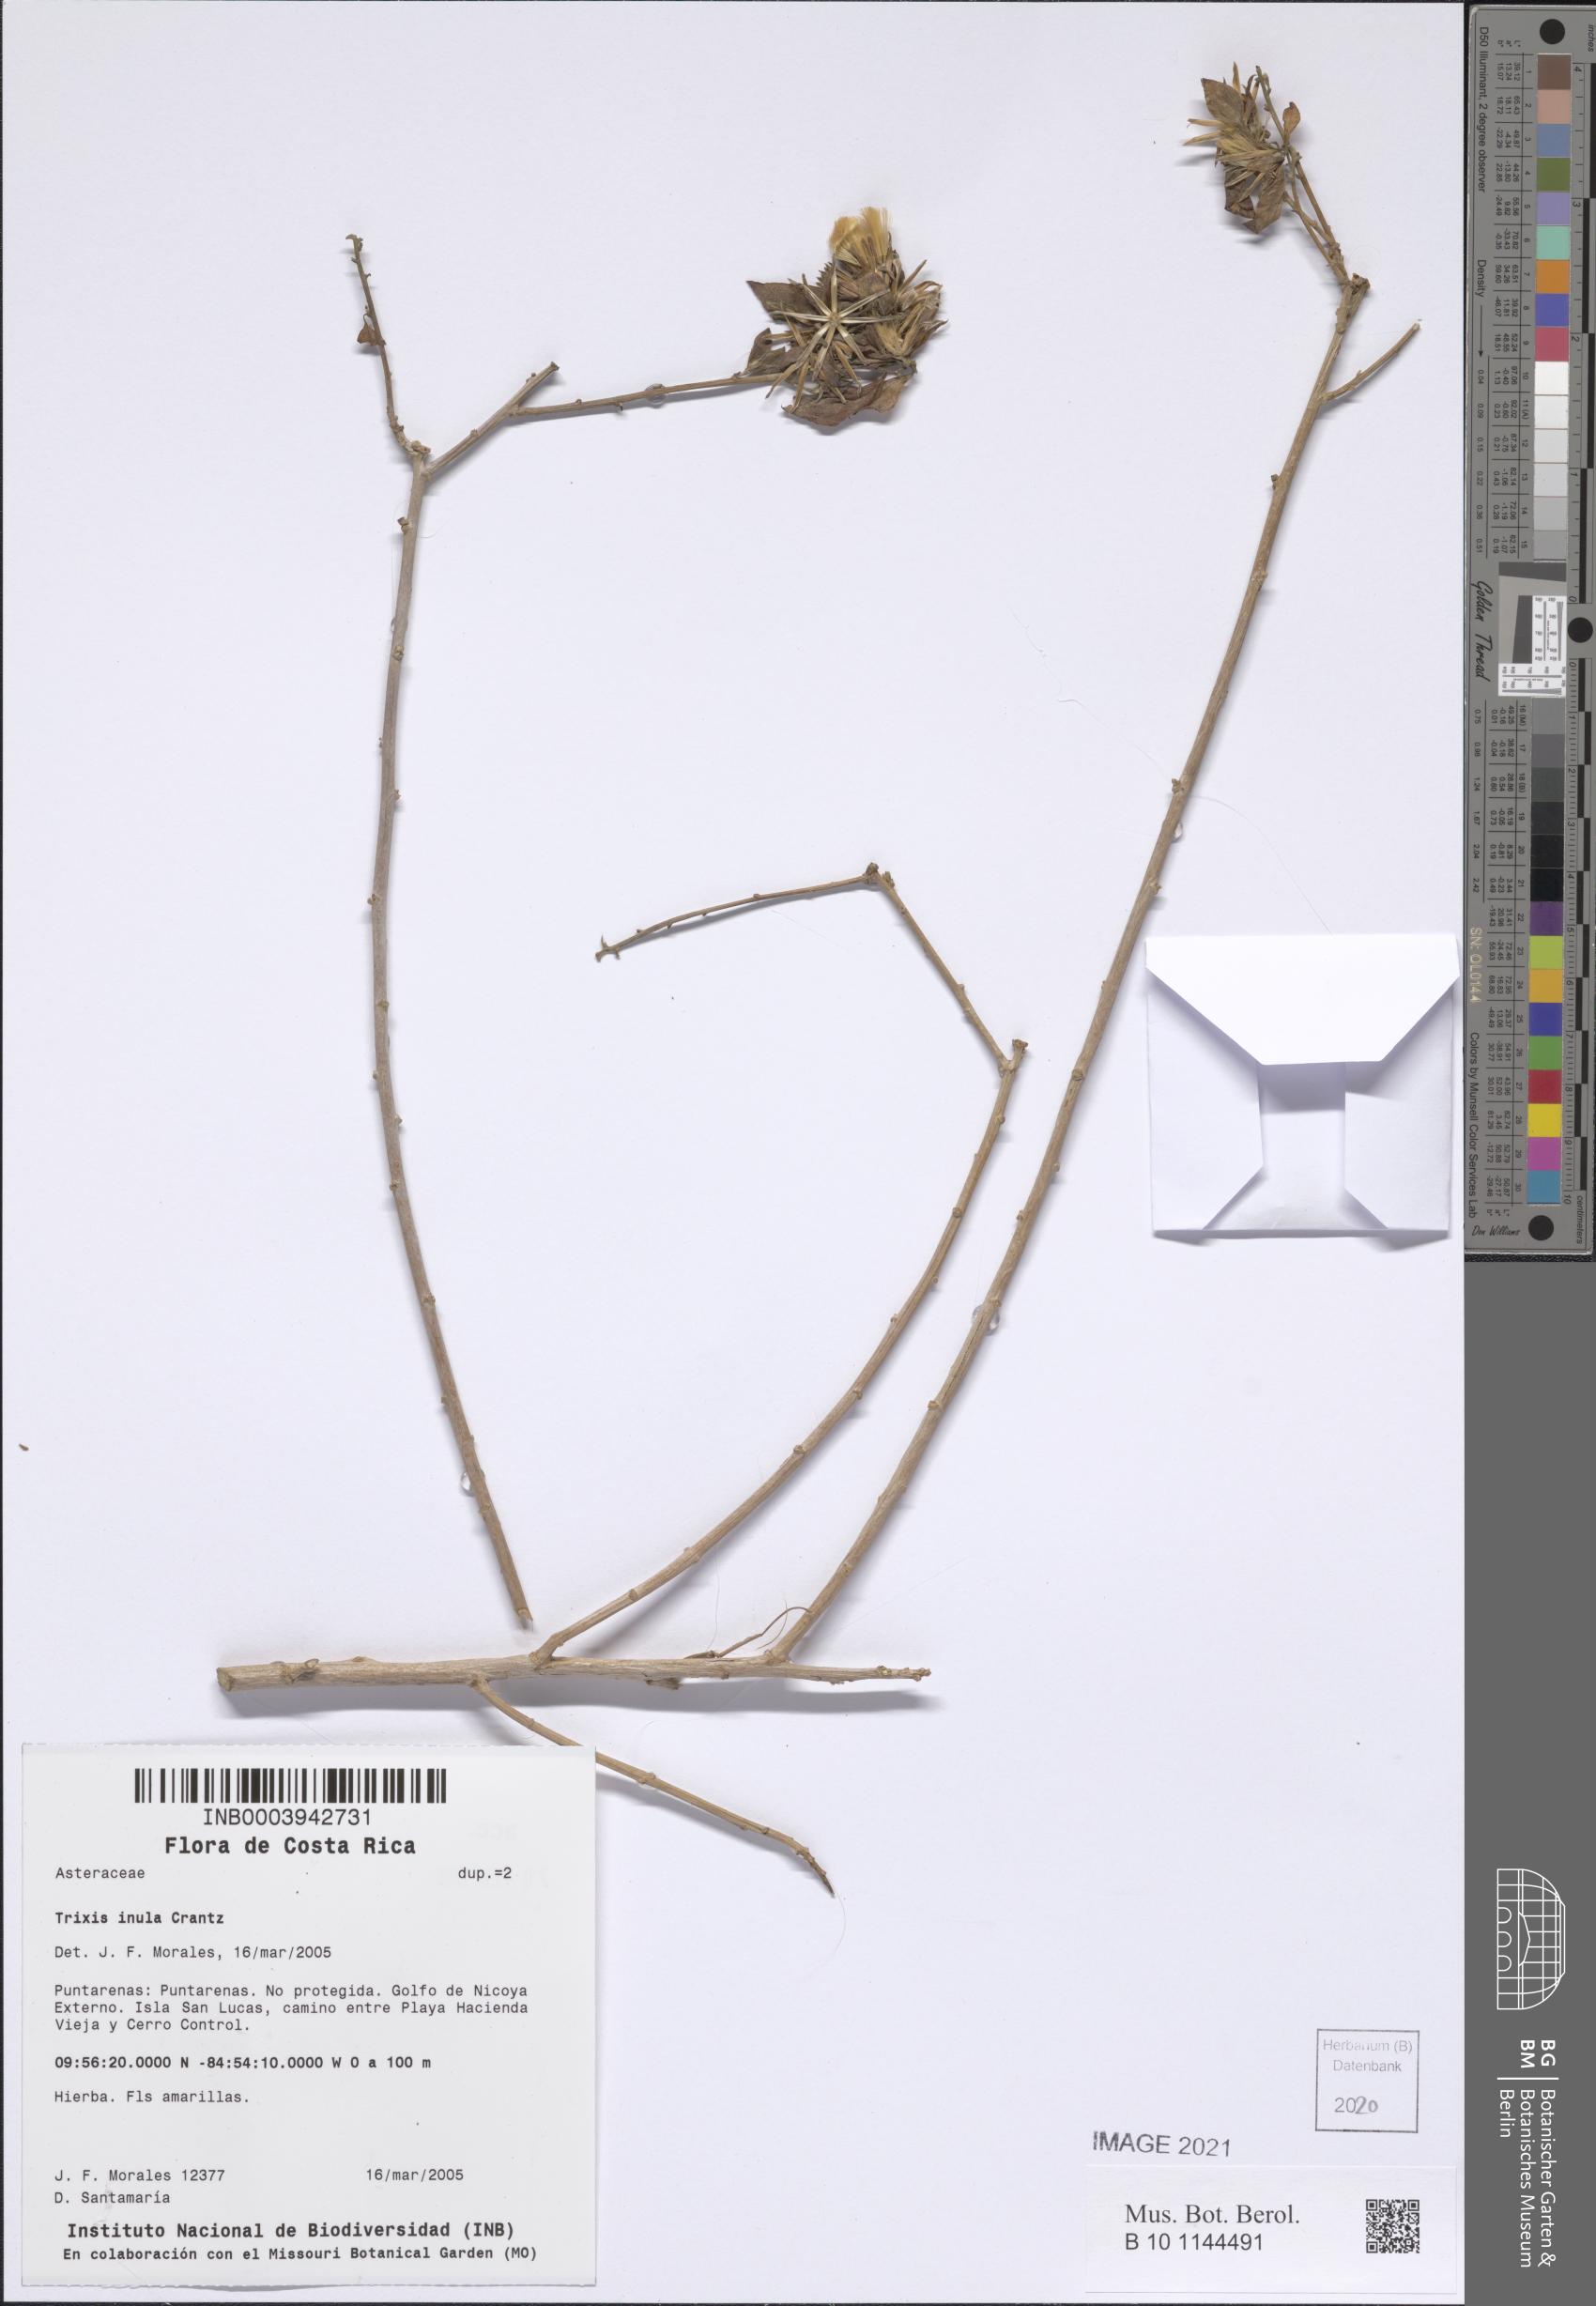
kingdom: Plantae
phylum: Tracheophyta
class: Magnoliopsida
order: Asterales
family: Asteraceae
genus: Trixis
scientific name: Trixis inula
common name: Tropical threefold
